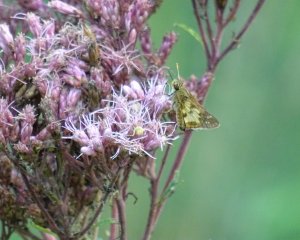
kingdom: Animalia
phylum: Arthropoda
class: Insecta
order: Lepidoptera
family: Hesperiidae
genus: Polites
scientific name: Polites coras
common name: Peck's Skipper
